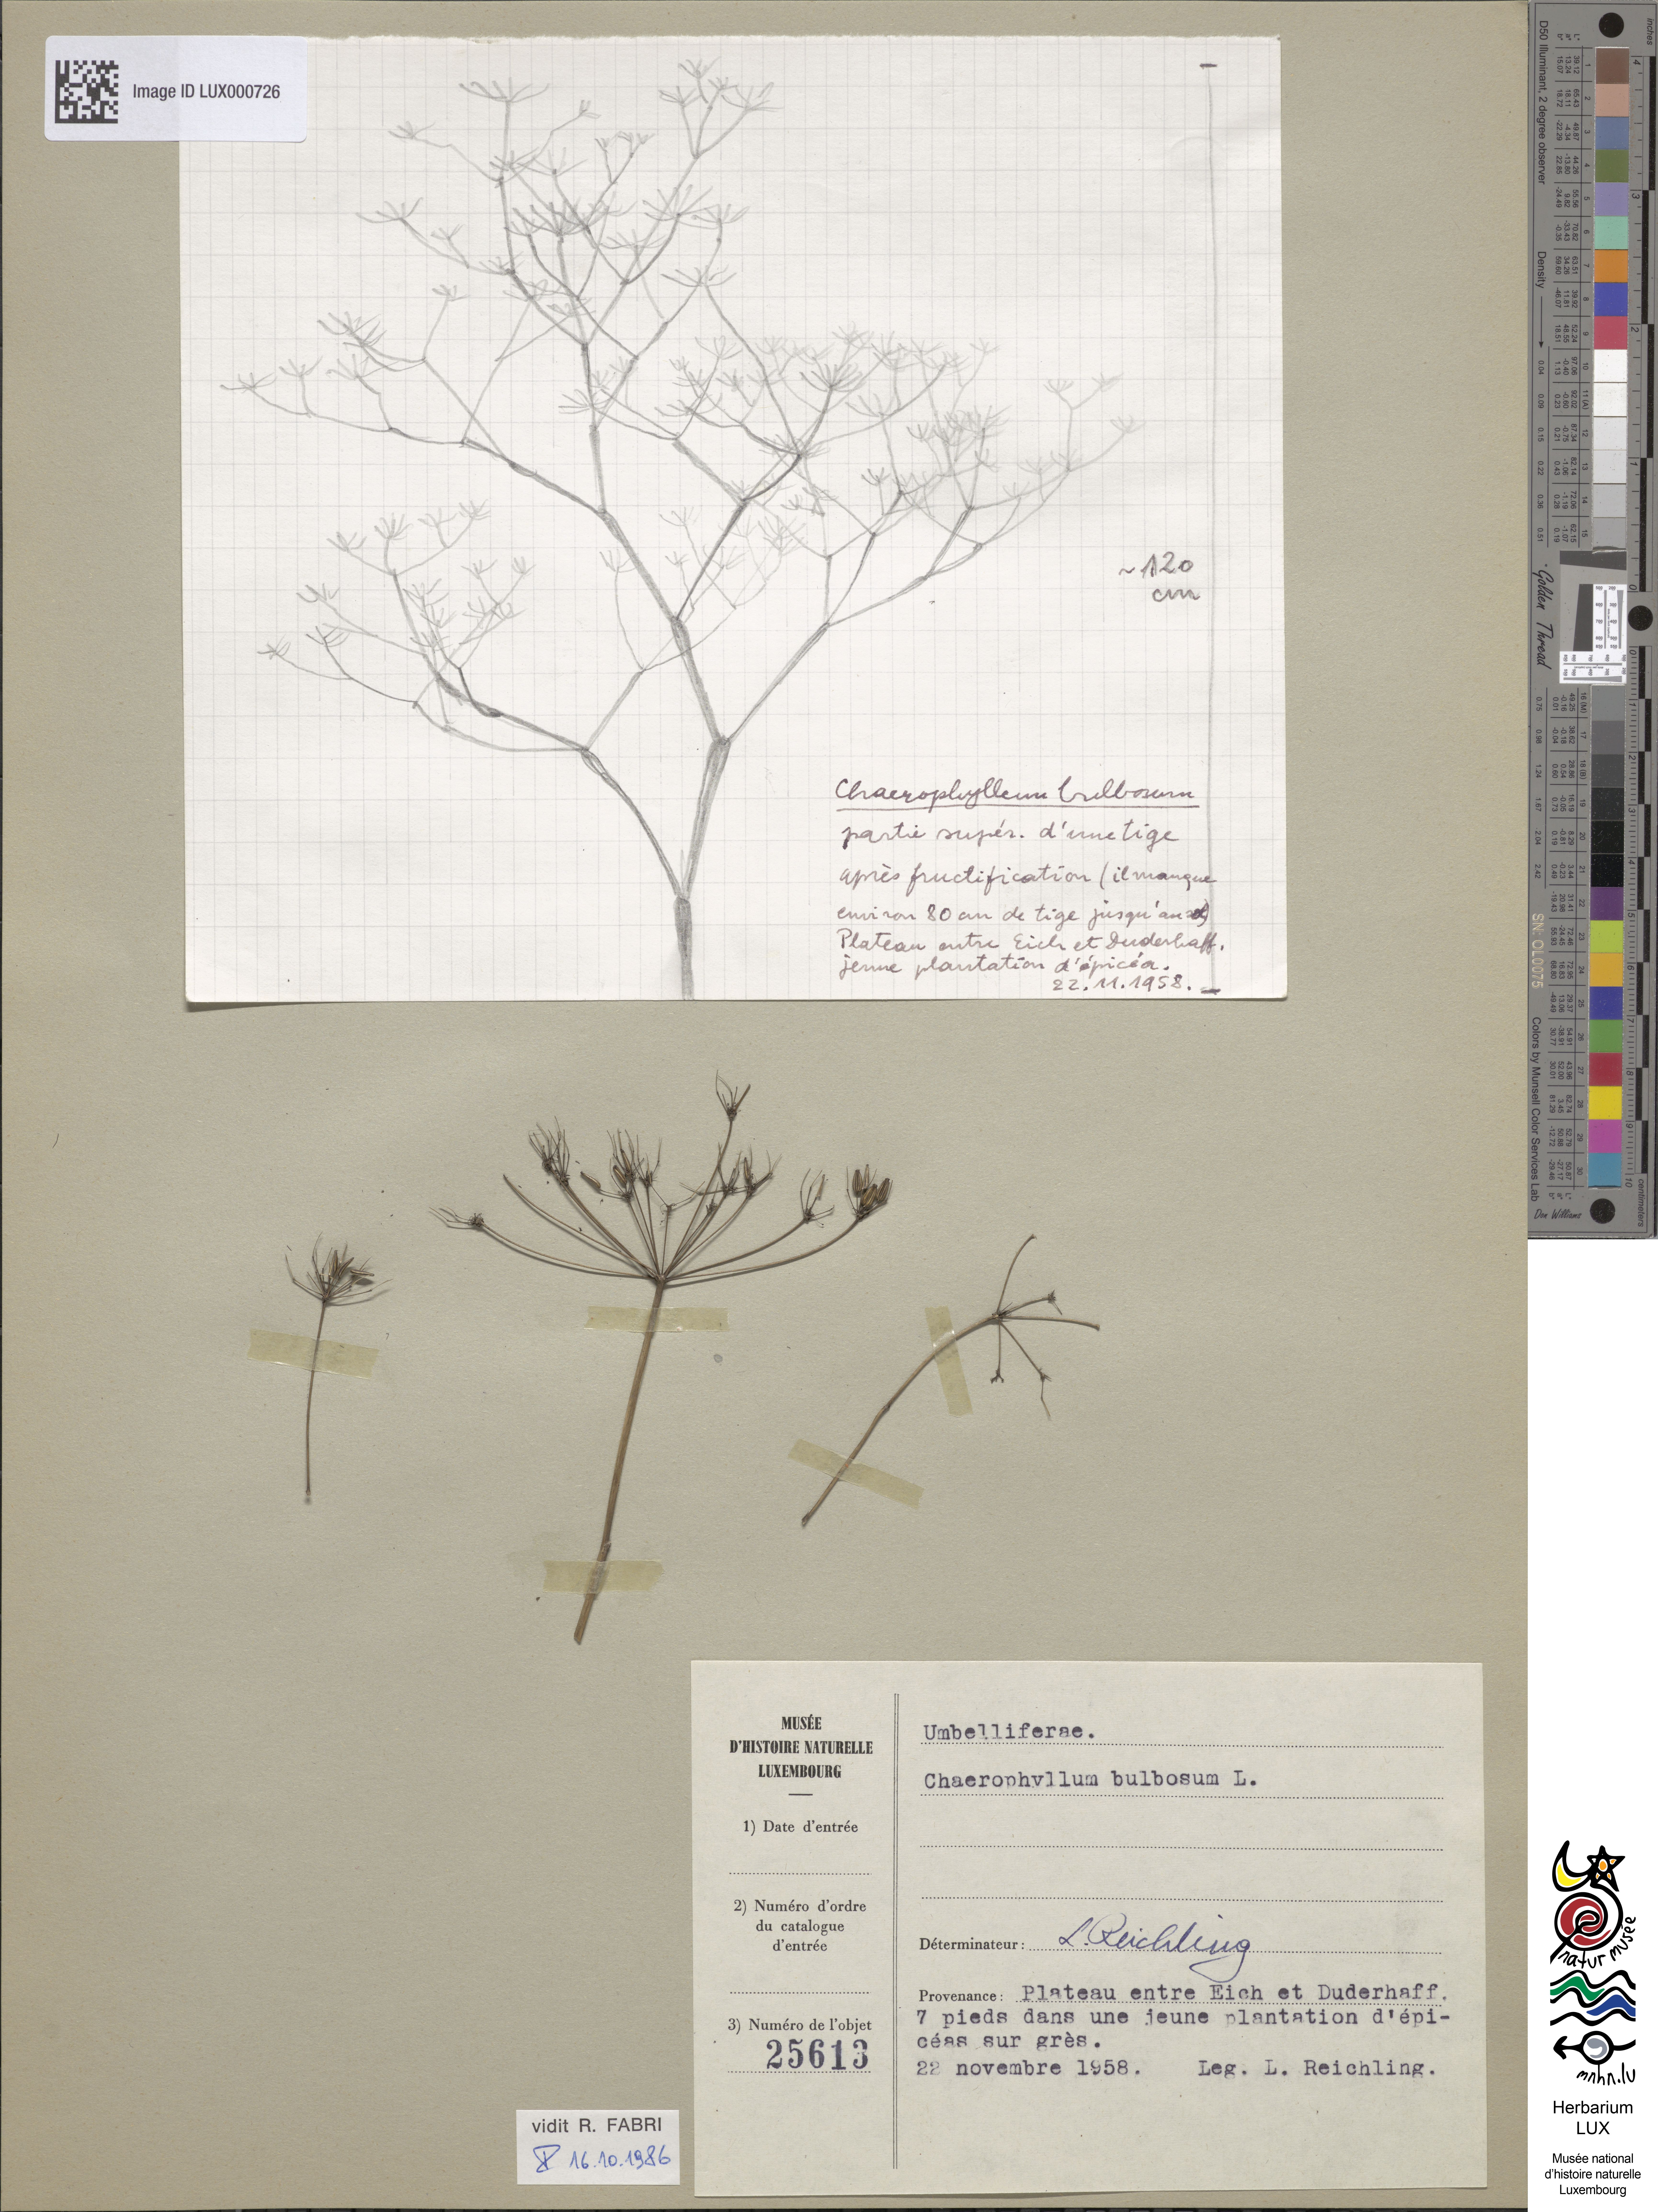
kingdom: Plantae
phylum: Tracheophyta
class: Magnoliopsida
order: Apiales
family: Apiaceae
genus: Chaerophyllum
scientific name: Chaerophyllum bulbosum
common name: Bulbous chervil
